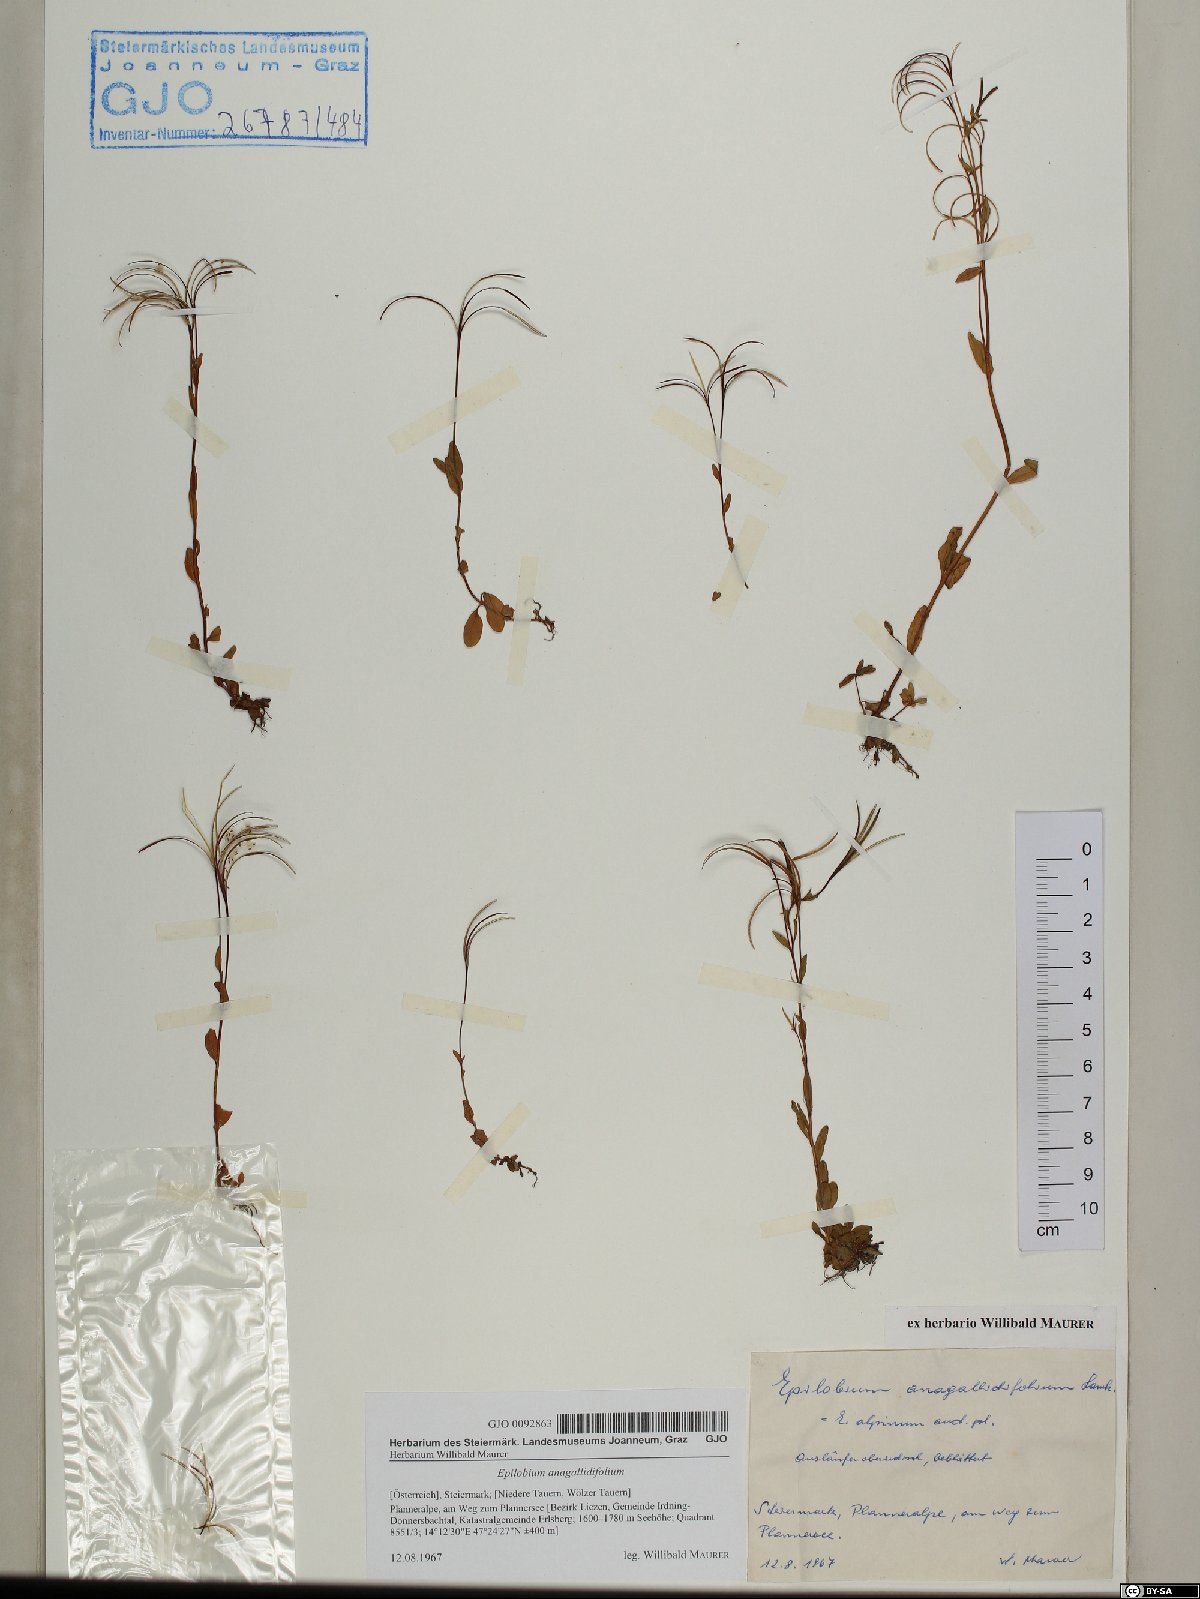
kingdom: Plantae
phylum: Tracheophyta
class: Magnoliopsida
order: Myrtales
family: Onagraceae
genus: Epilobium
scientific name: Epilobium anagallidifolium
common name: Alpine willowherb
